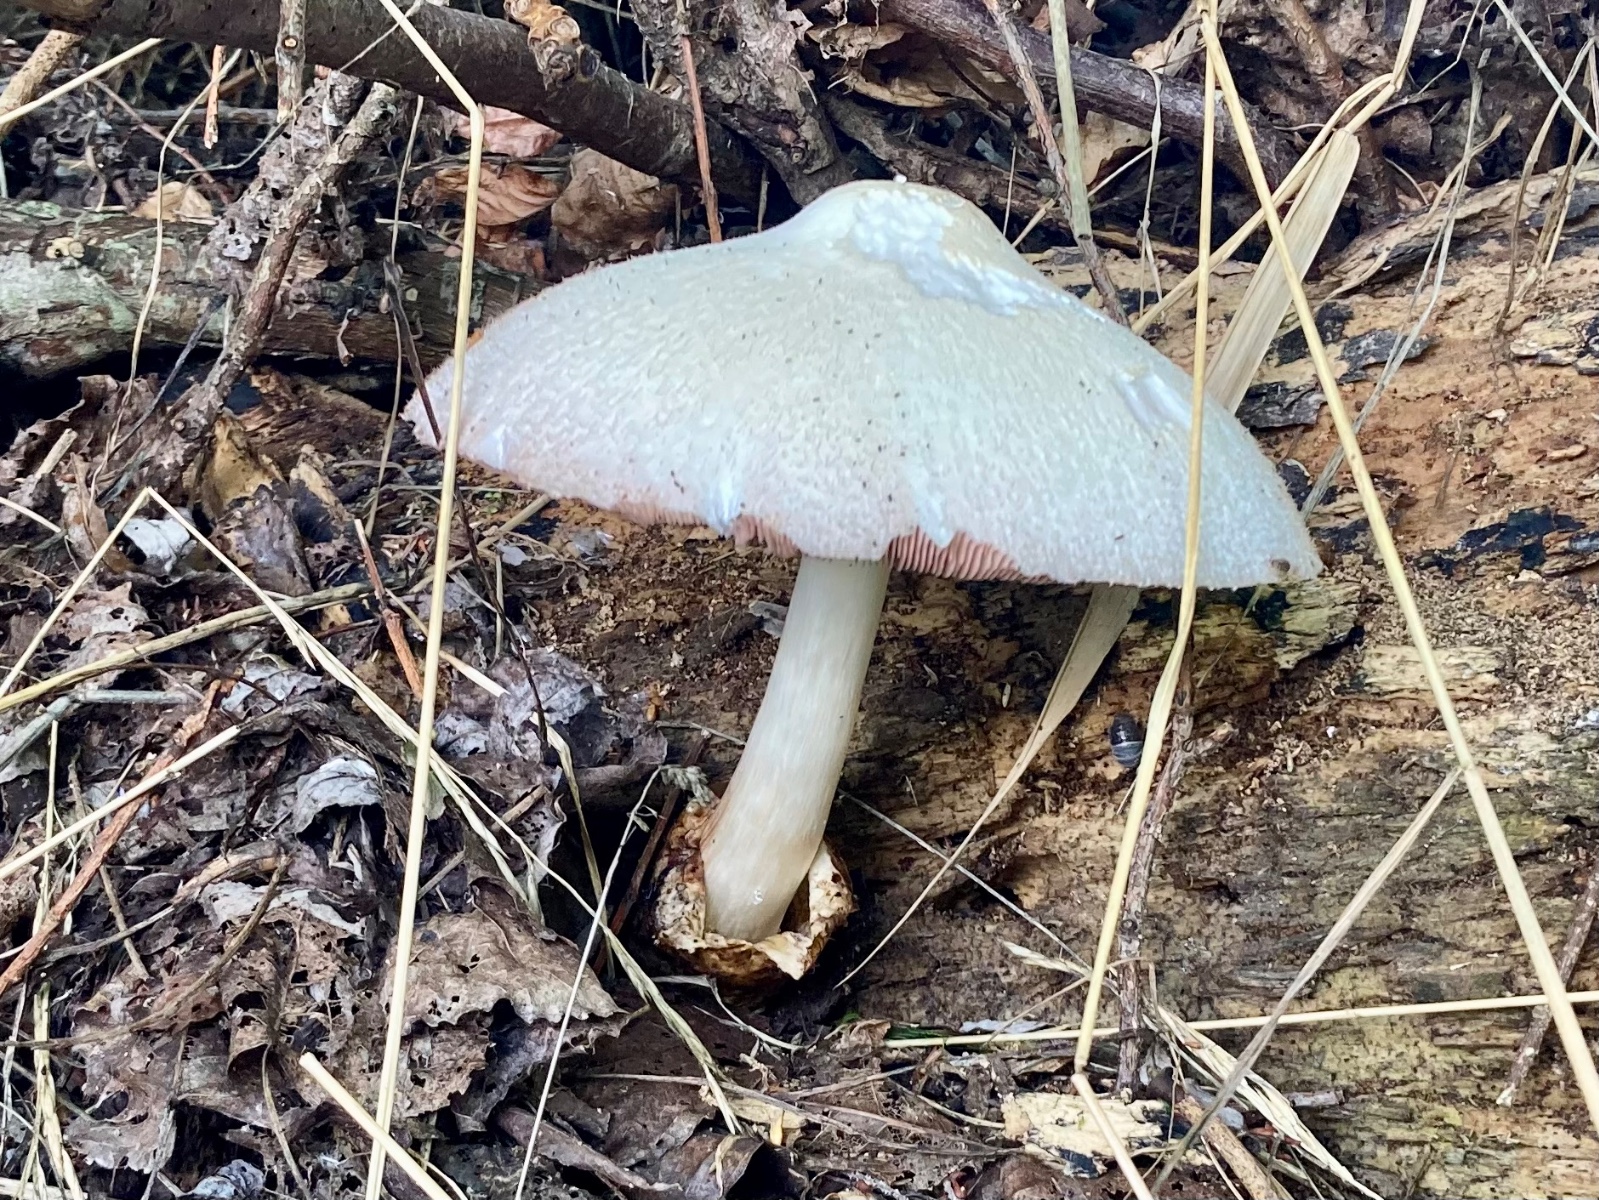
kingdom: Fungi
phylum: Basidiomycota
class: Agaricomycetes
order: Agaricales
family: Pluteaceae
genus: Volvariella
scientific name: Volvariella bombycina
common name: silkehåret posesvamp
